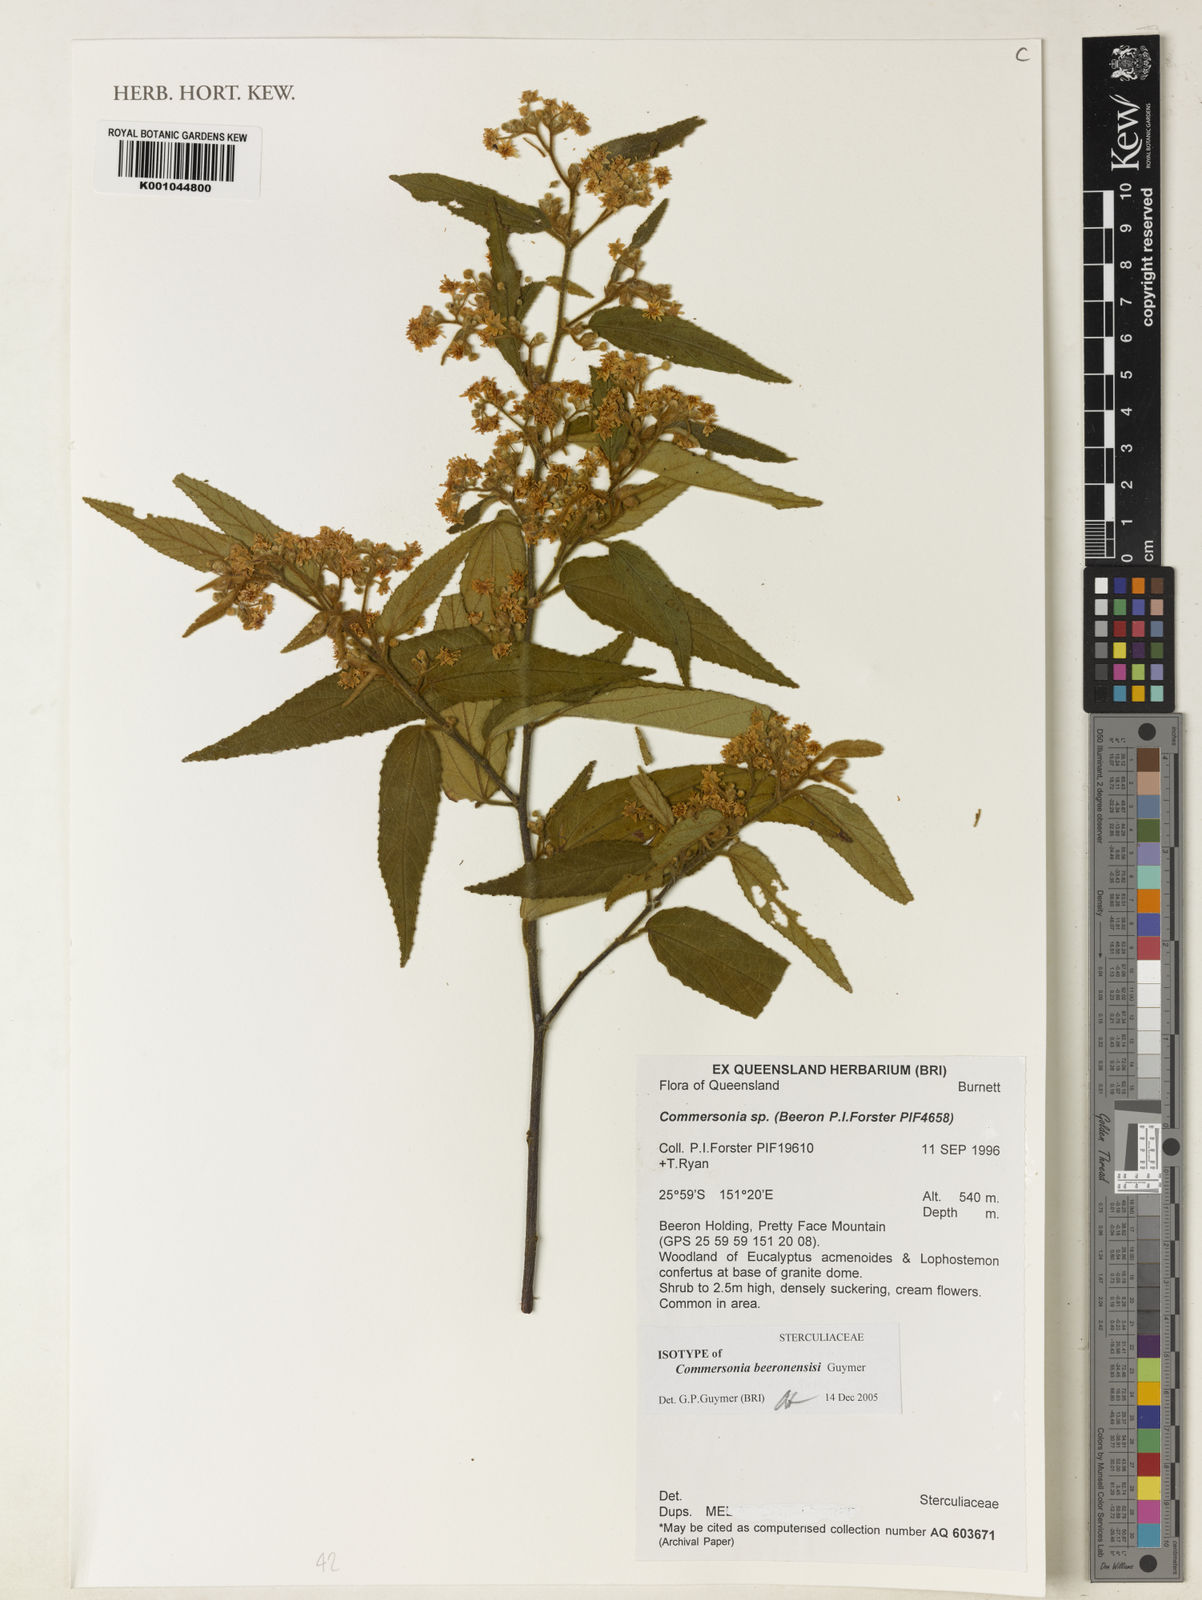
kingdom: Plantae
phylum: Tracheophyta
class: Magnoliopsida
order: Malvales
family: Malvaceae
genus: Androcalva
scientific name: Androcalva beeronensis
